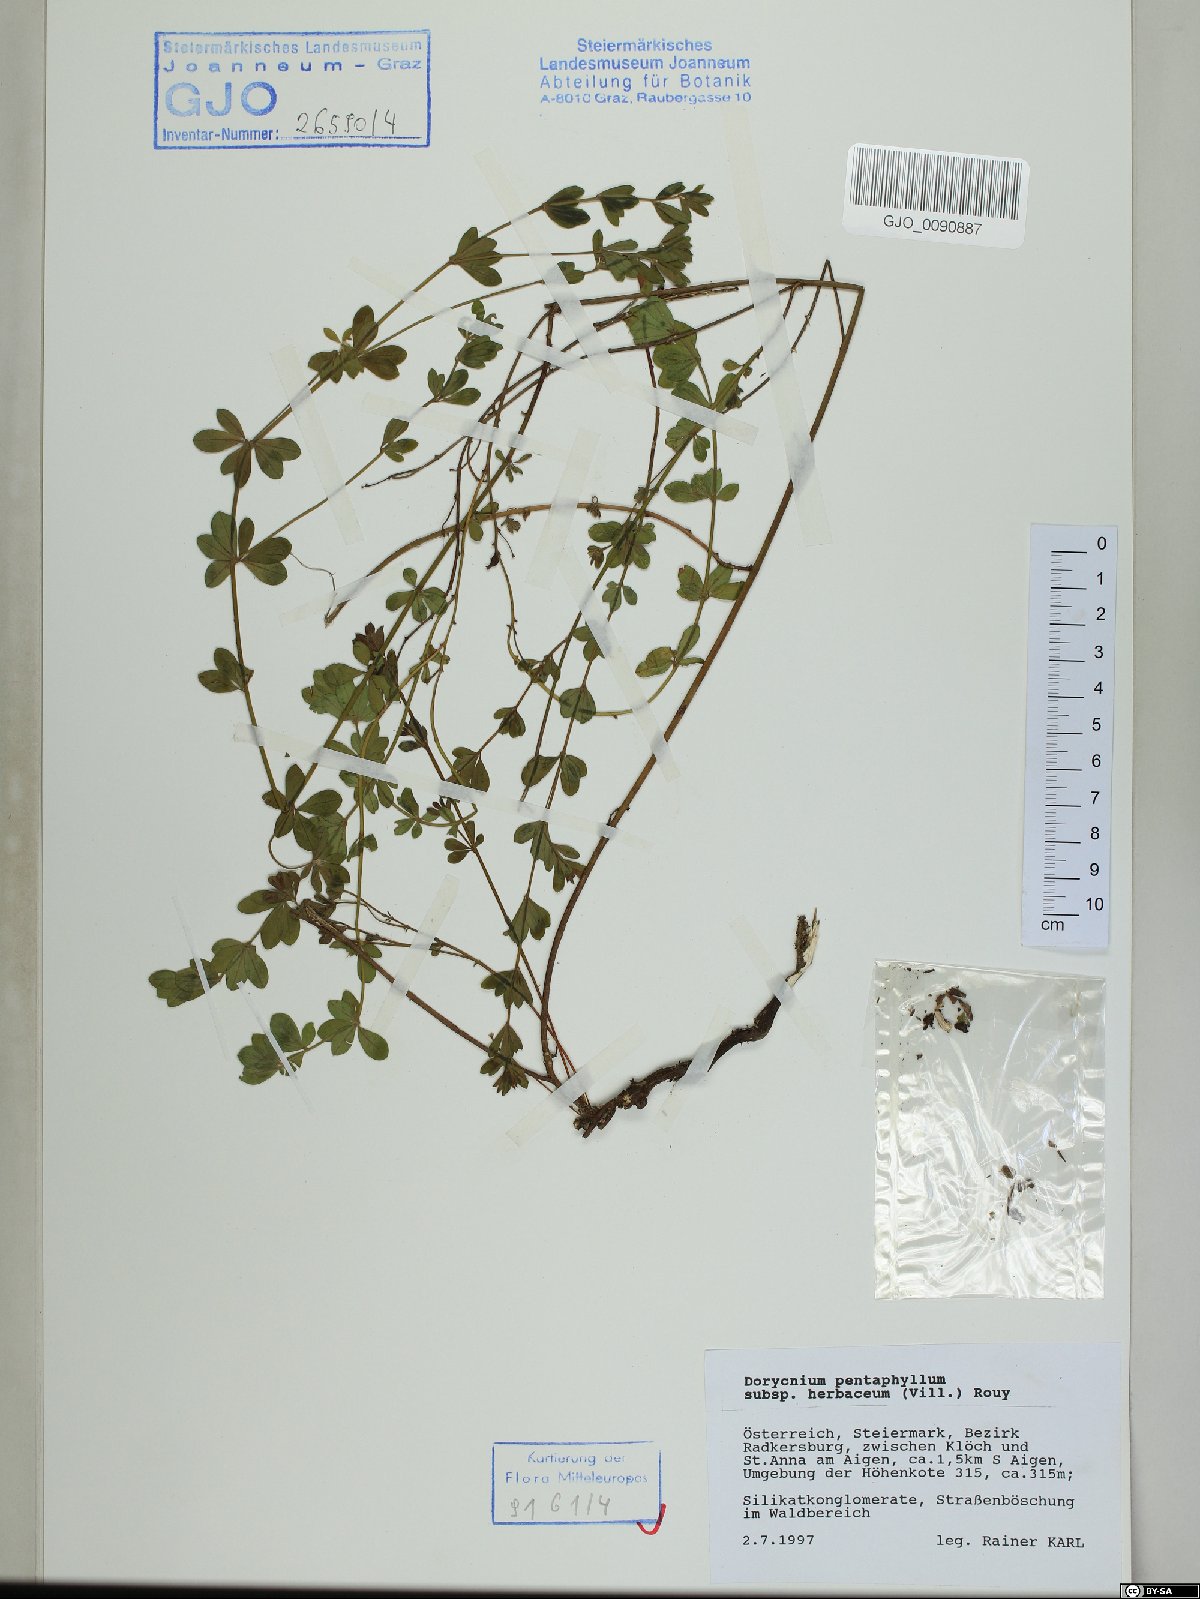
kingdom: Plantae
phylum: Tracheophyta
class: Magnoliopsida
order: Fabales
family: Fabaceae
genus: Lotus
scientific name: Lotus herbaceus
